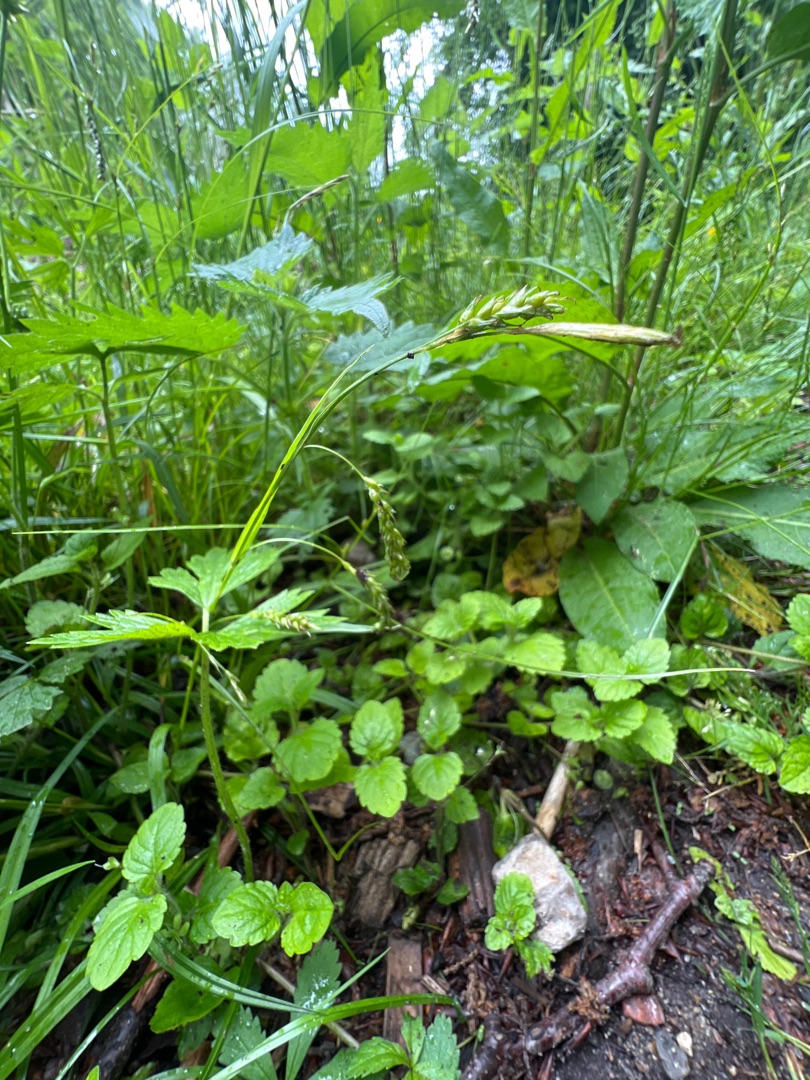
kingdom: Plantae
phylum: Tracheophyta
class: Liliopsida
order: Poales
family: Cyperaceae
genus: Carex
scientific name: Carex sylvatica
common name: Skov-star
